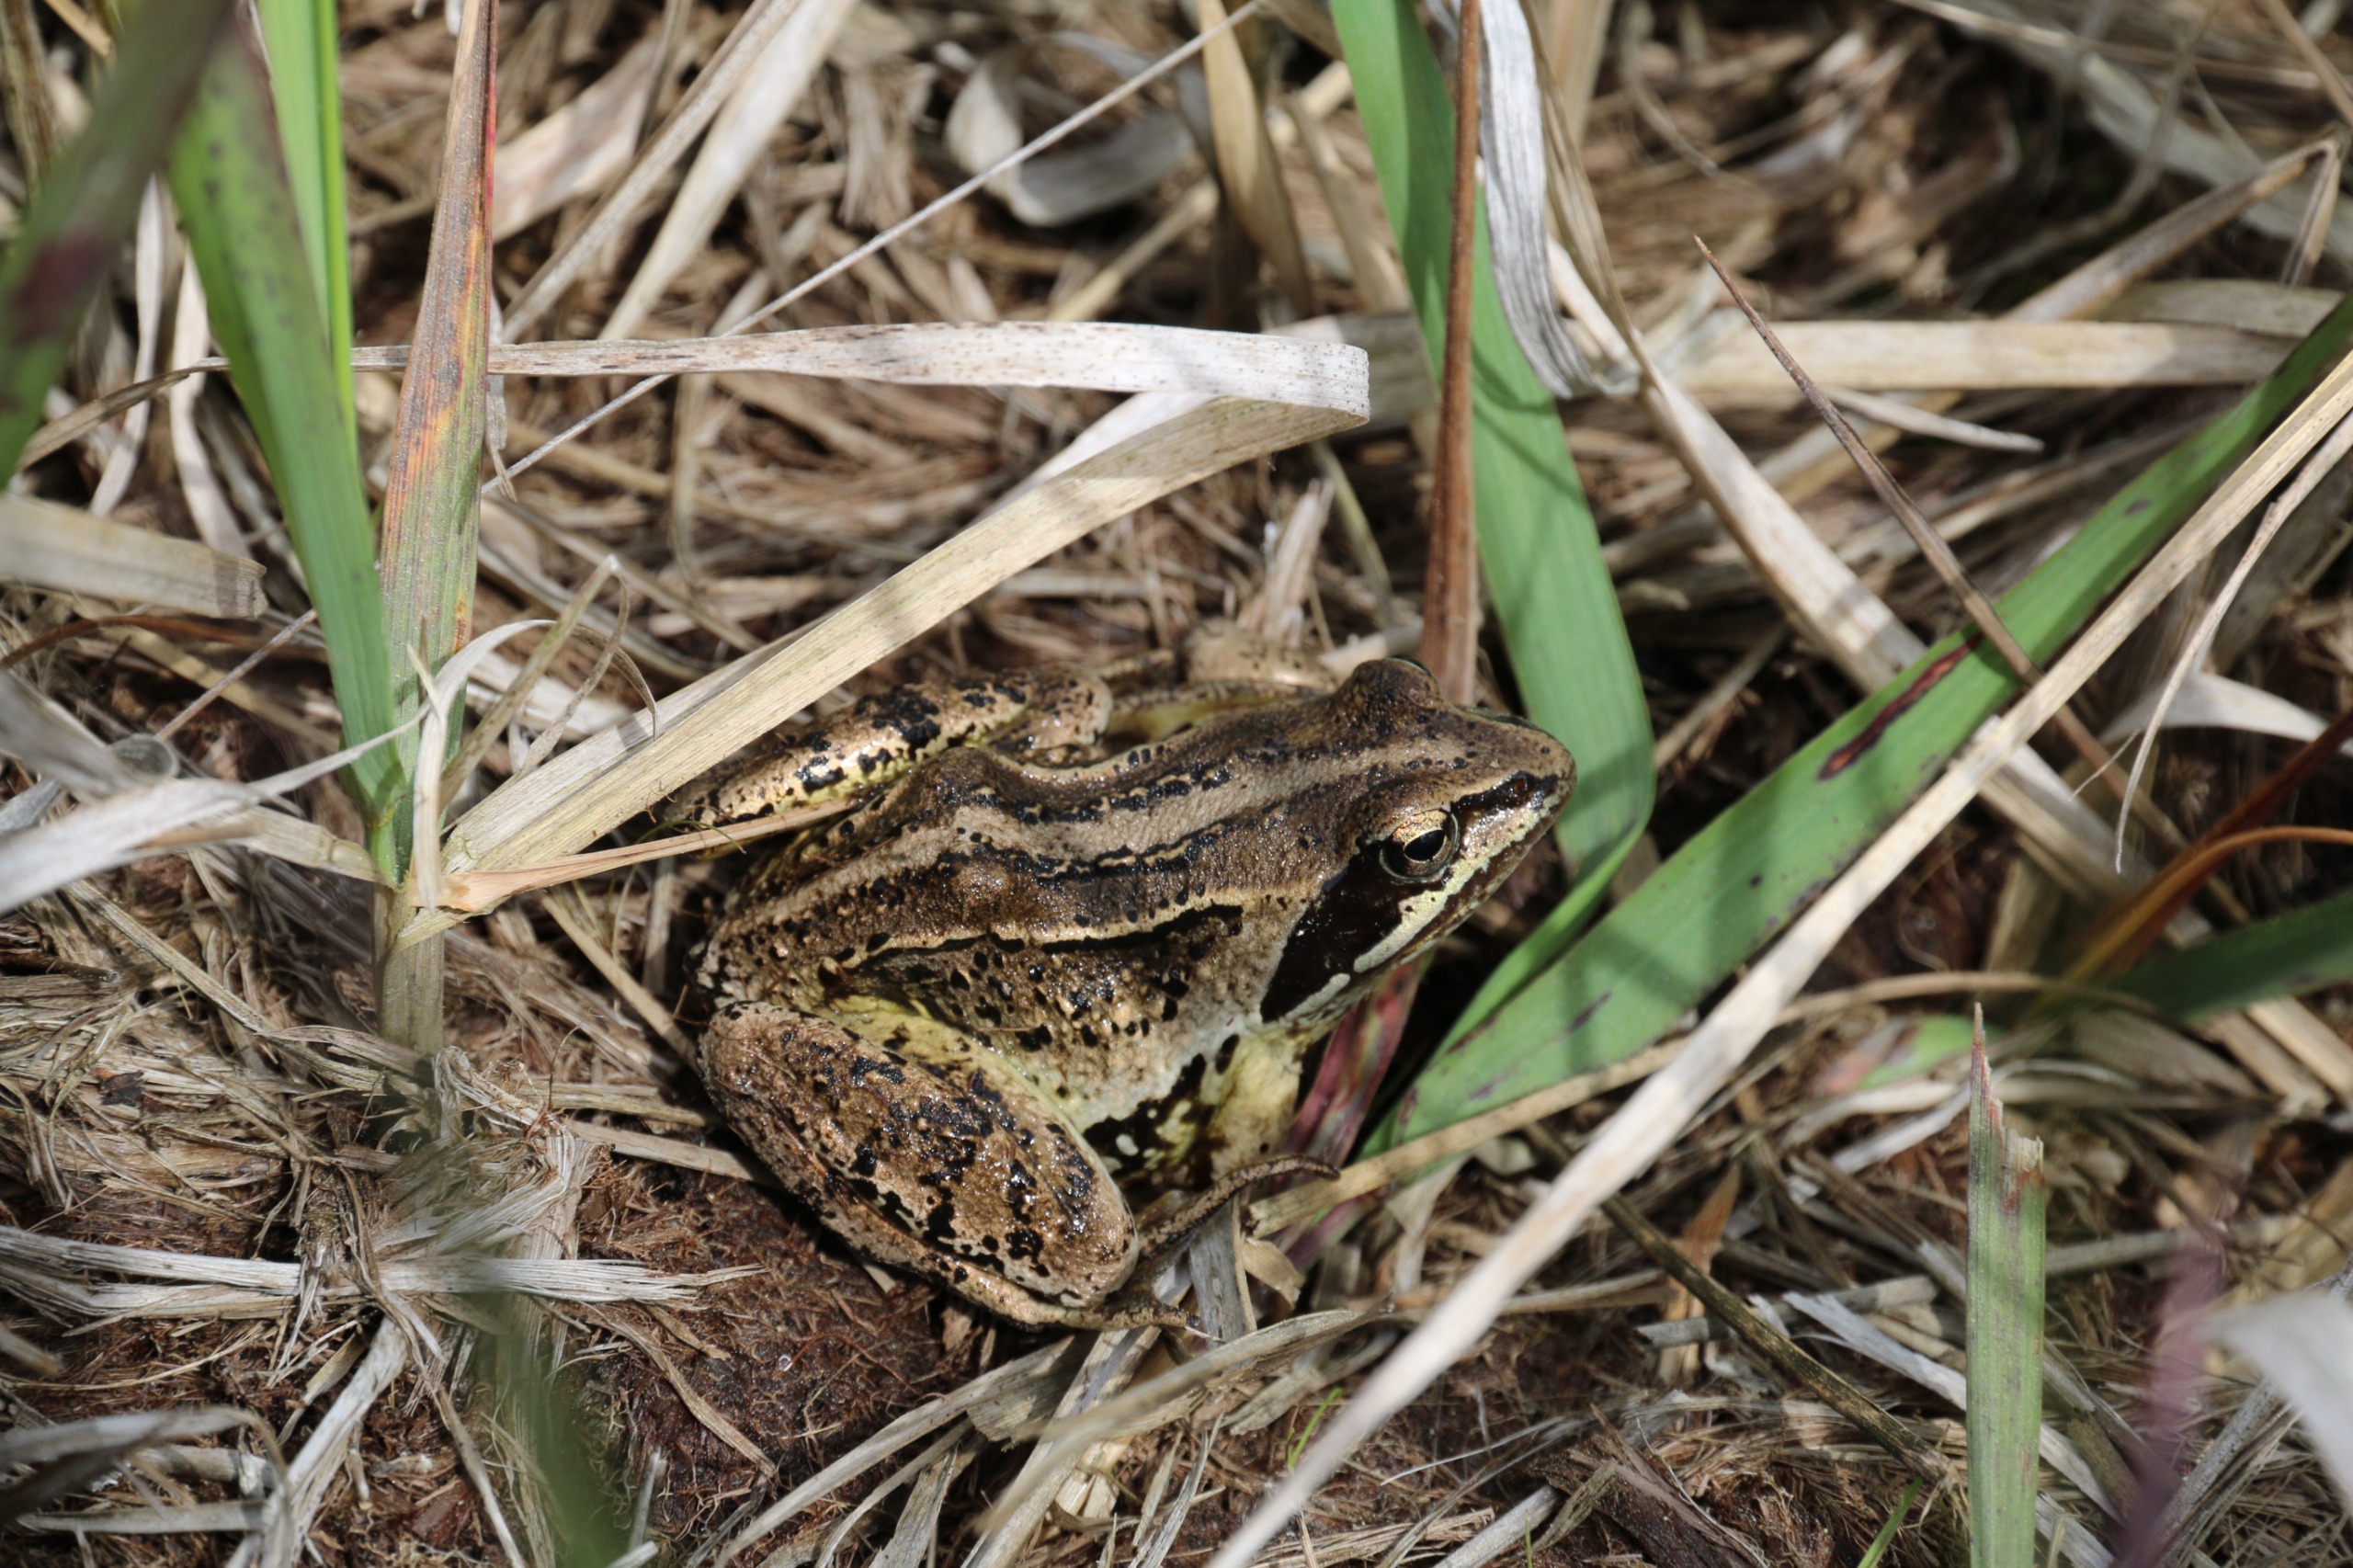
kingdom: Animalia
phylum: Chordata
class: Amphibia
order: Anura
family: Ranidae
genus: Rana
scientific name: Rana arvalis
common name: Spidssnudet frø
